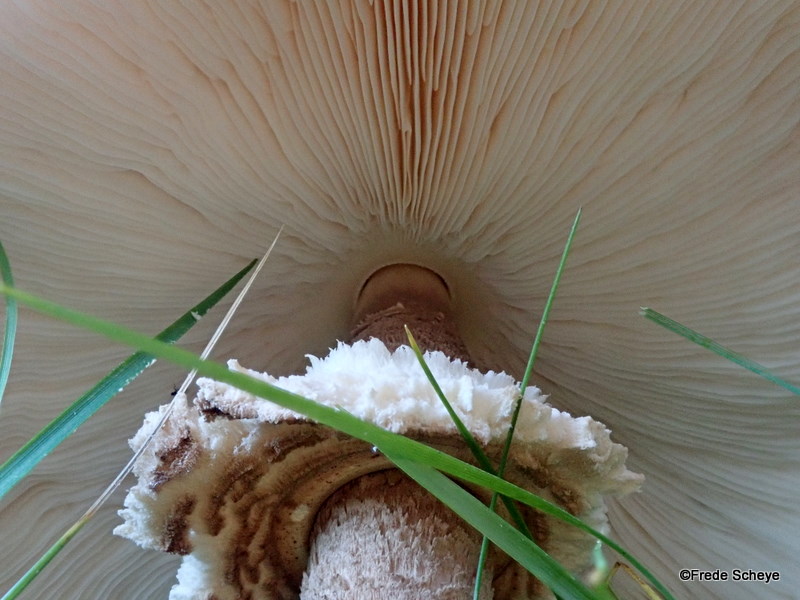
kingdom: Fungi
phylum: Basidiomycota
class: Agaricomycetes
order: Agaricales
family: Agaricaceae
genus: Macrolepiota
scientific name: Macrolepiota procera
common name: stor kæmpeparasolhat
